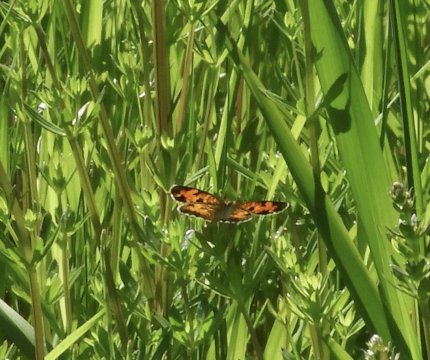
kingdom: Animalia
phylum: Arthropoda
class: Insecta
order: Lepidoptera
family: Nymphalidae
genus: Phyciodes
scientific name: Phyciodes
